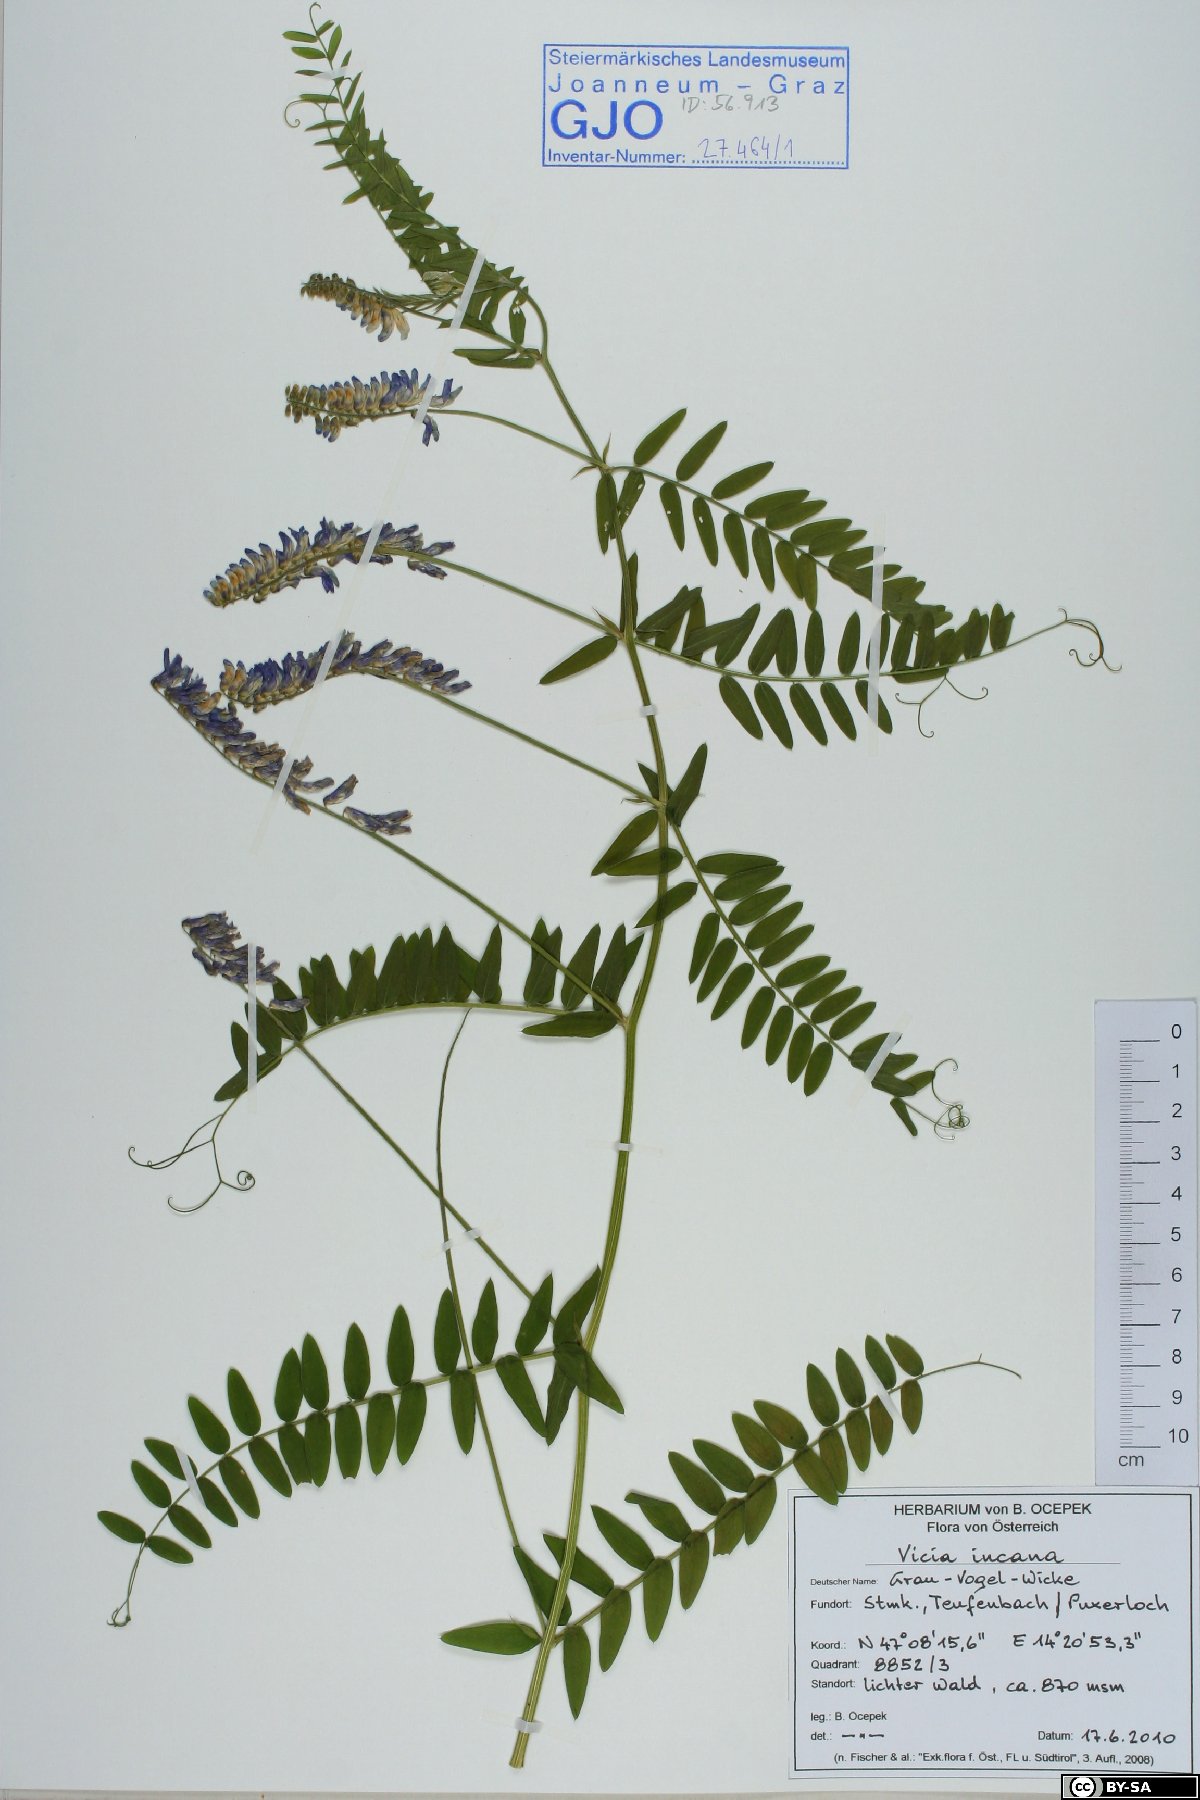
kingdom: Plantae
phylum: Tracheophyta
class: Magnoliopsida
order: Fabales
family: Fabaceae
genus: Vicia
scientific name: Vicia incana
